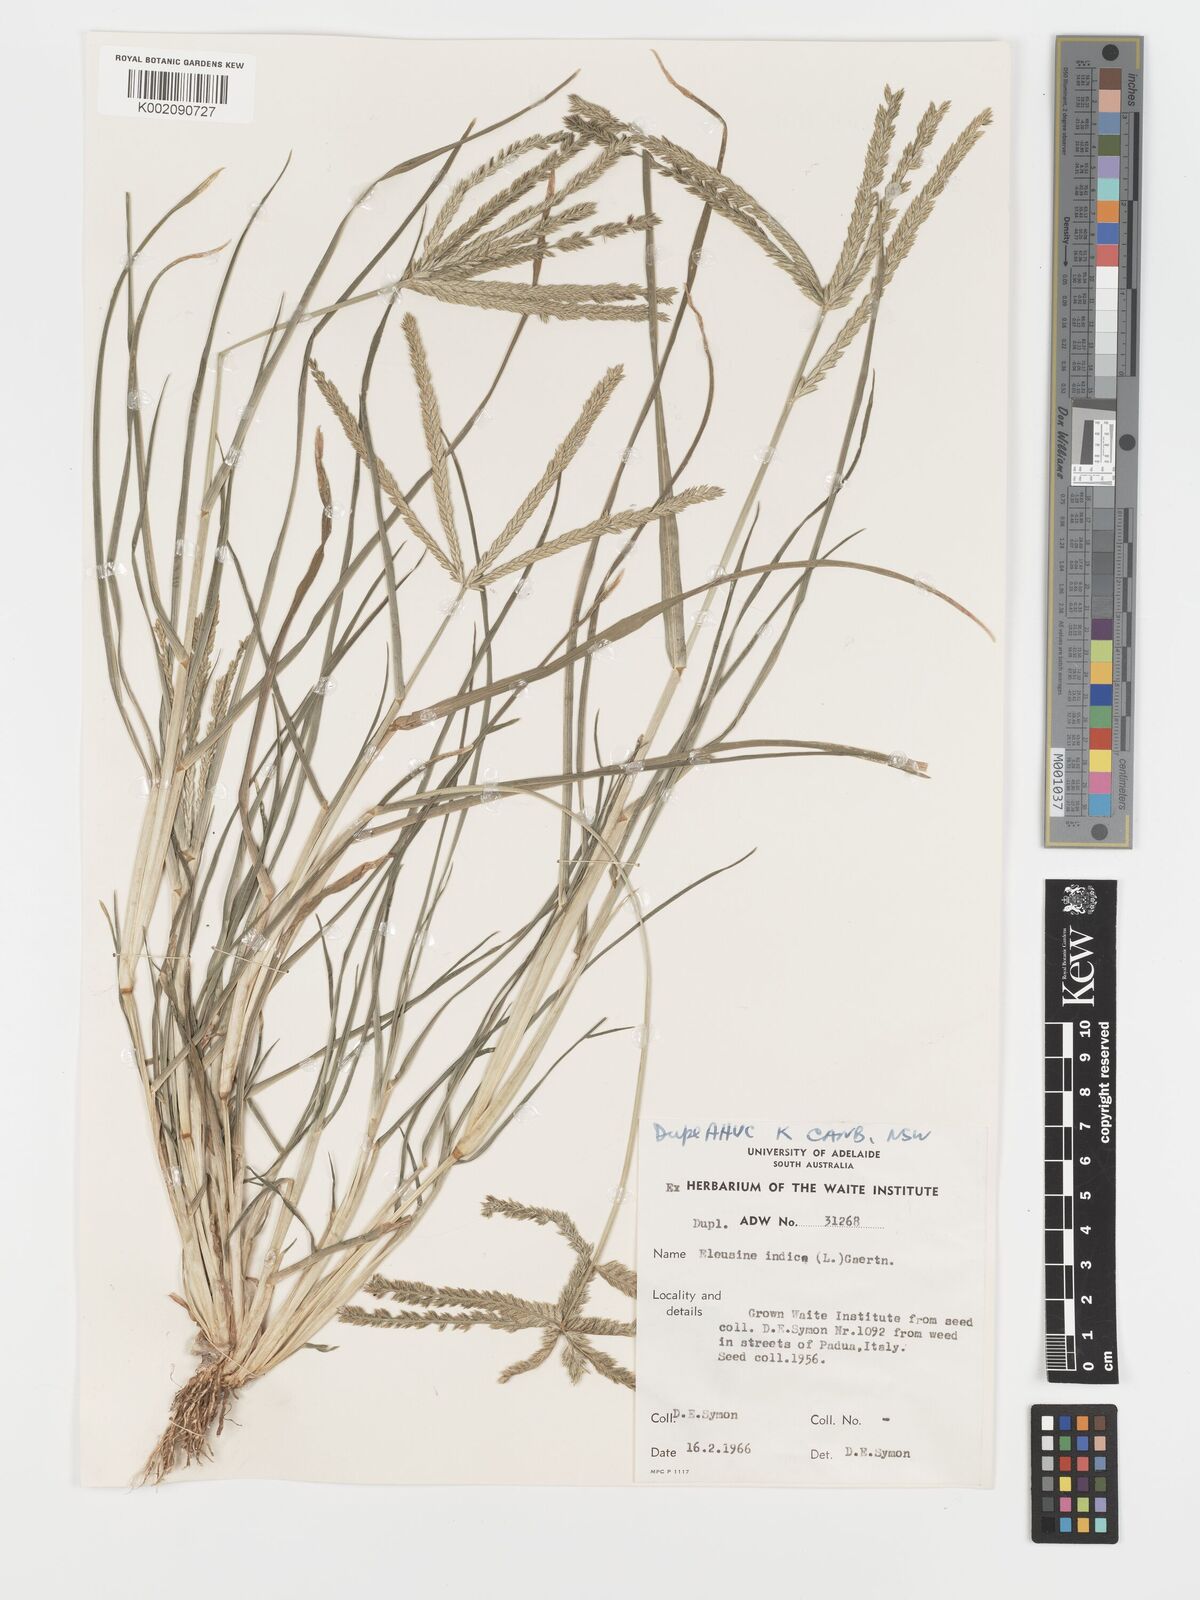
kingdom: Plantae
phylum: Tracheophyta
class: Liliopsida
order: Poales
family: Poaceae
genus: Eleusine
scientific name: Eleusine indica
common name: Yard-grass
